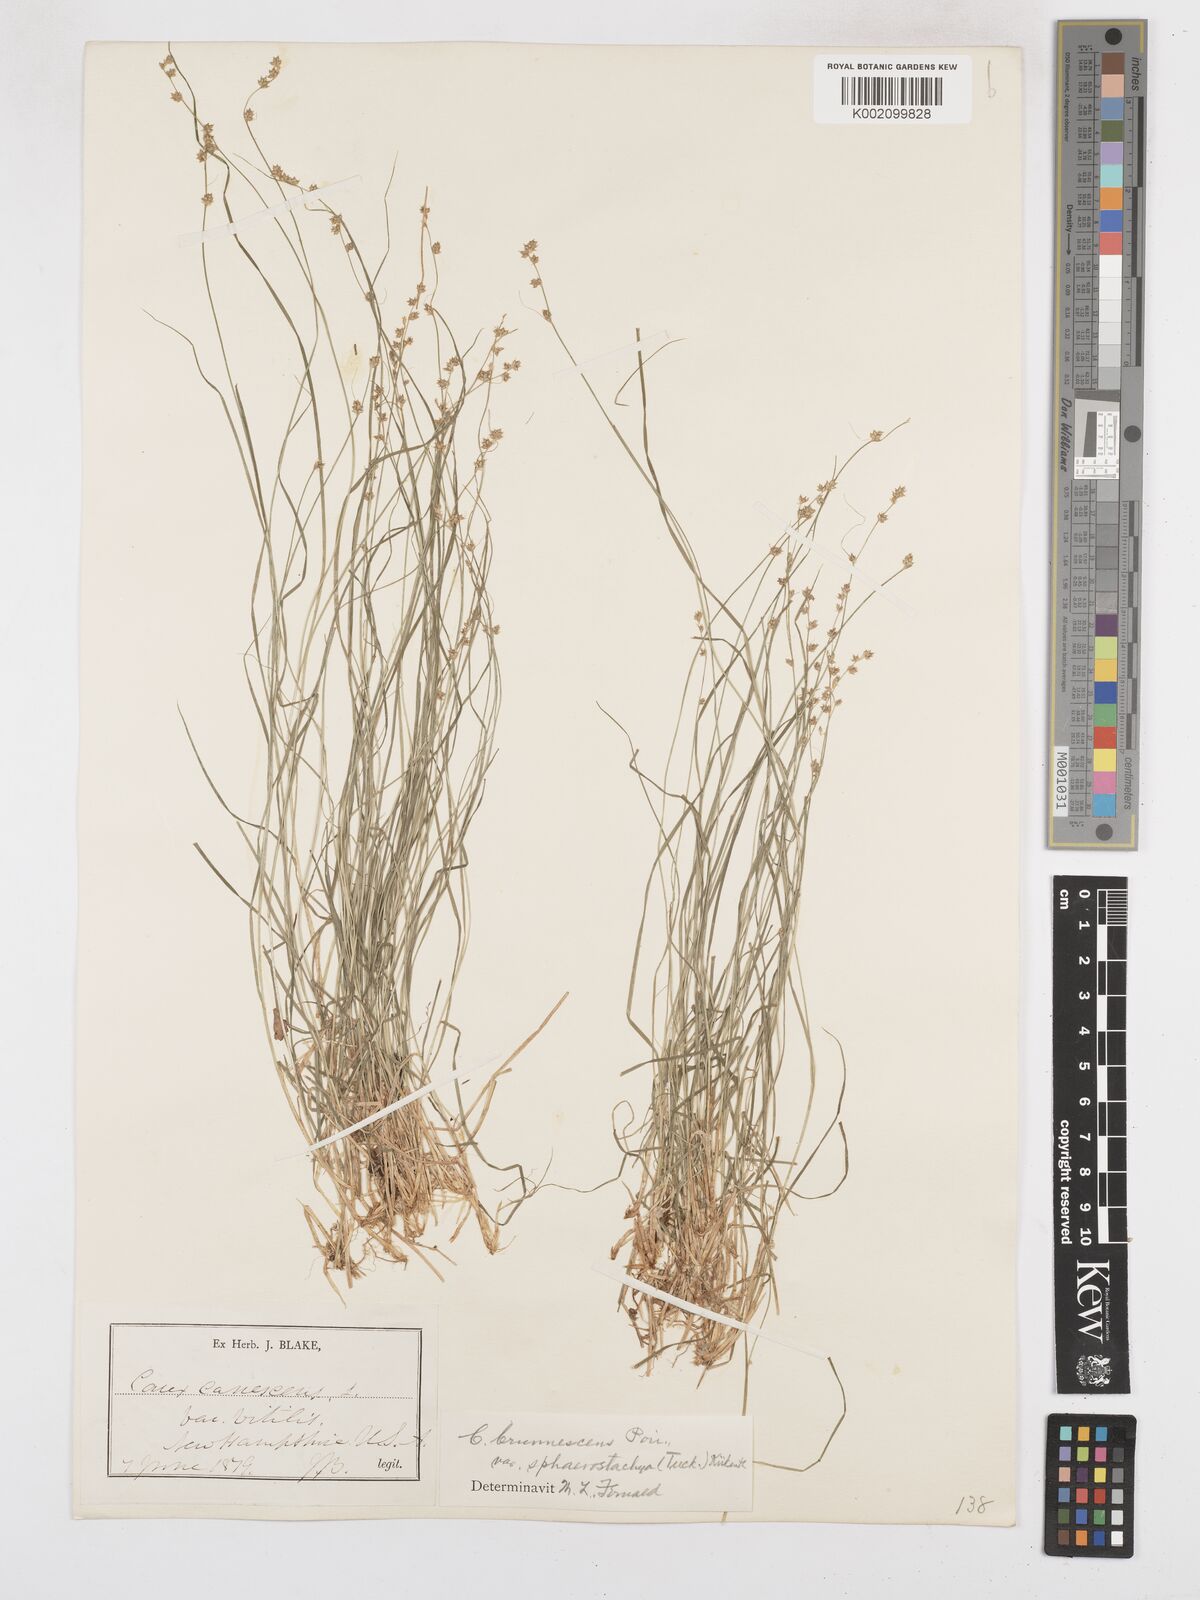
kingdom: Plantae
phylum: Tracheophyta
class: Liliopsida
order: Poales
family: Cyperaceae
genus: Carex
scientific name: Carex curta
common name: White sedge
